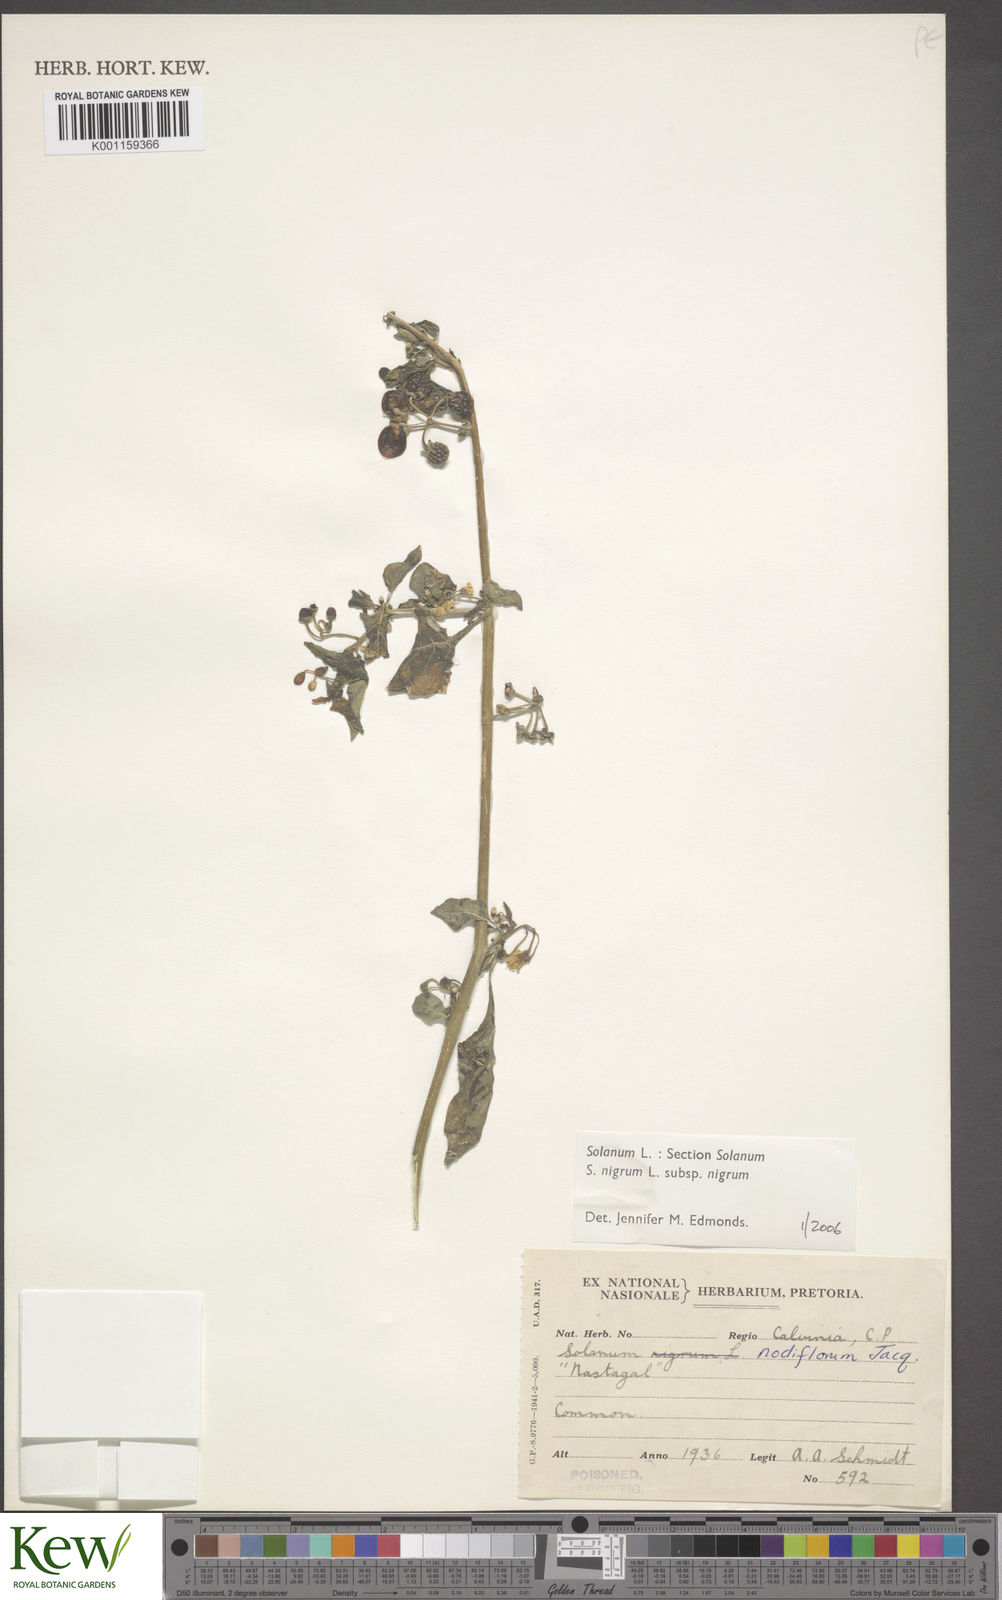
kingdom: Plantae
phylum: Tracheophyta
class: Magnoliopsida
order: Solanales
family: Solanaceae
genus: Solanum
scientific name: Solanum scabrum
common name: Garden-huckleberry
